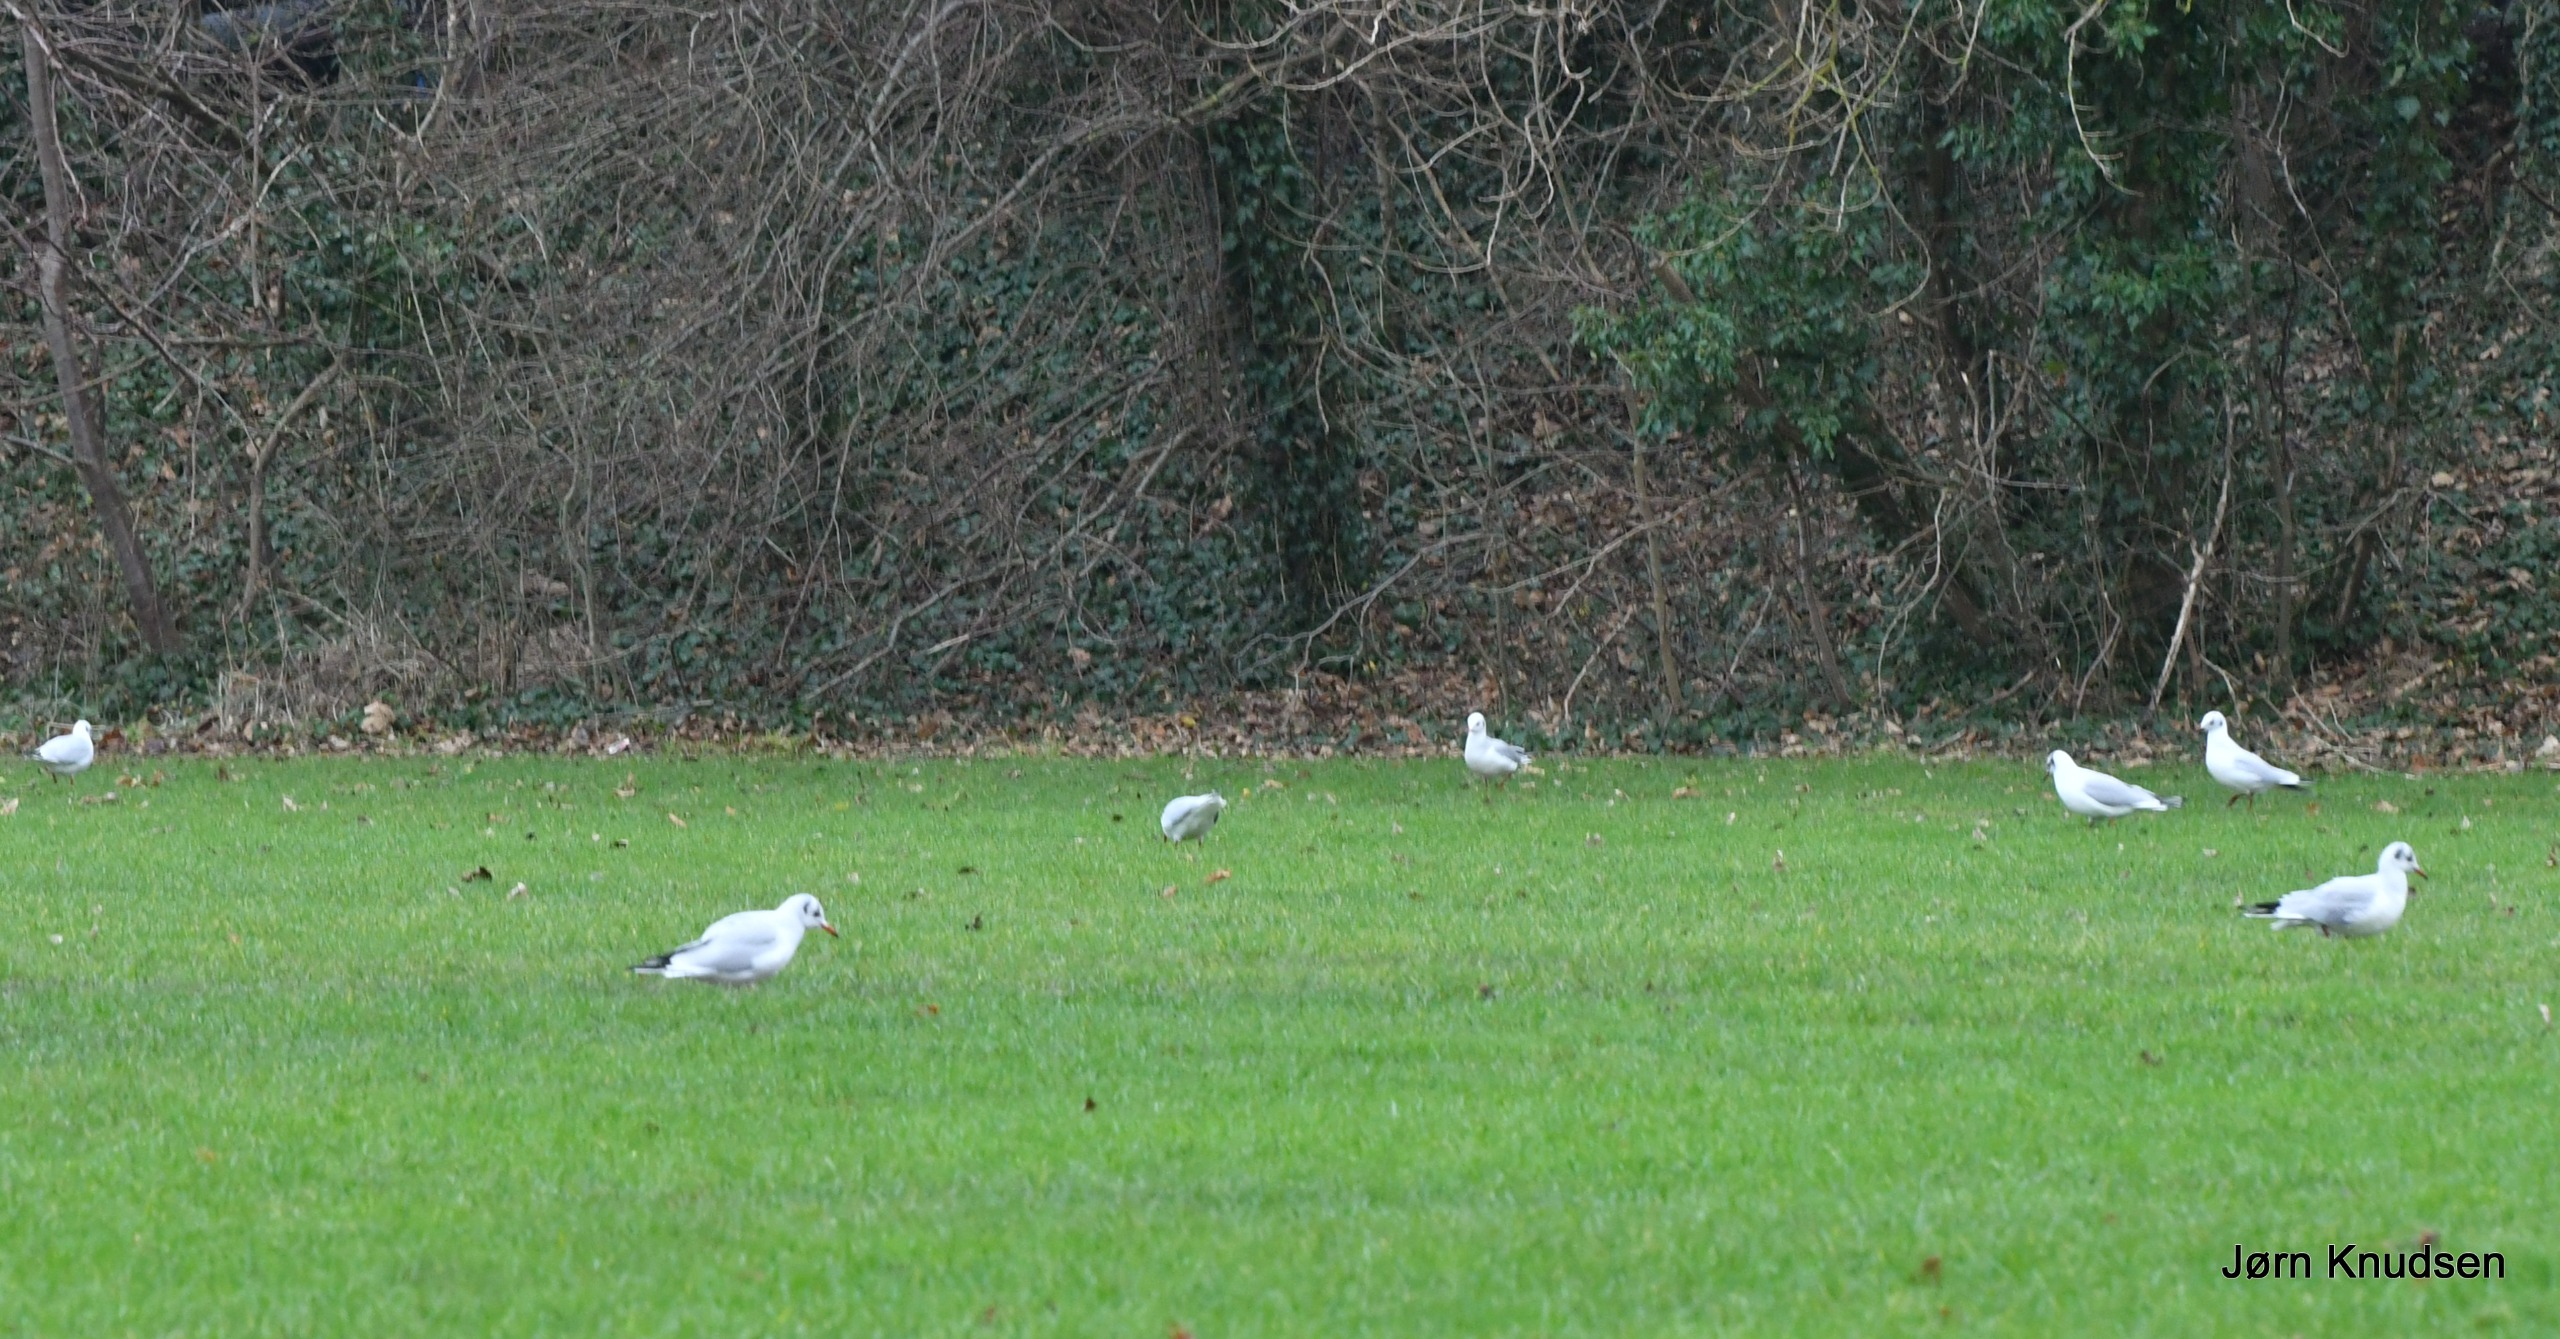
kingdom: Animalia
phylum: Chordata
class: Aves
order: Charadriiformes
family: Laridae
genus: Chroicocephalus
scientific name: Chroicocephalus ridibundus
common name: Hættemåge
